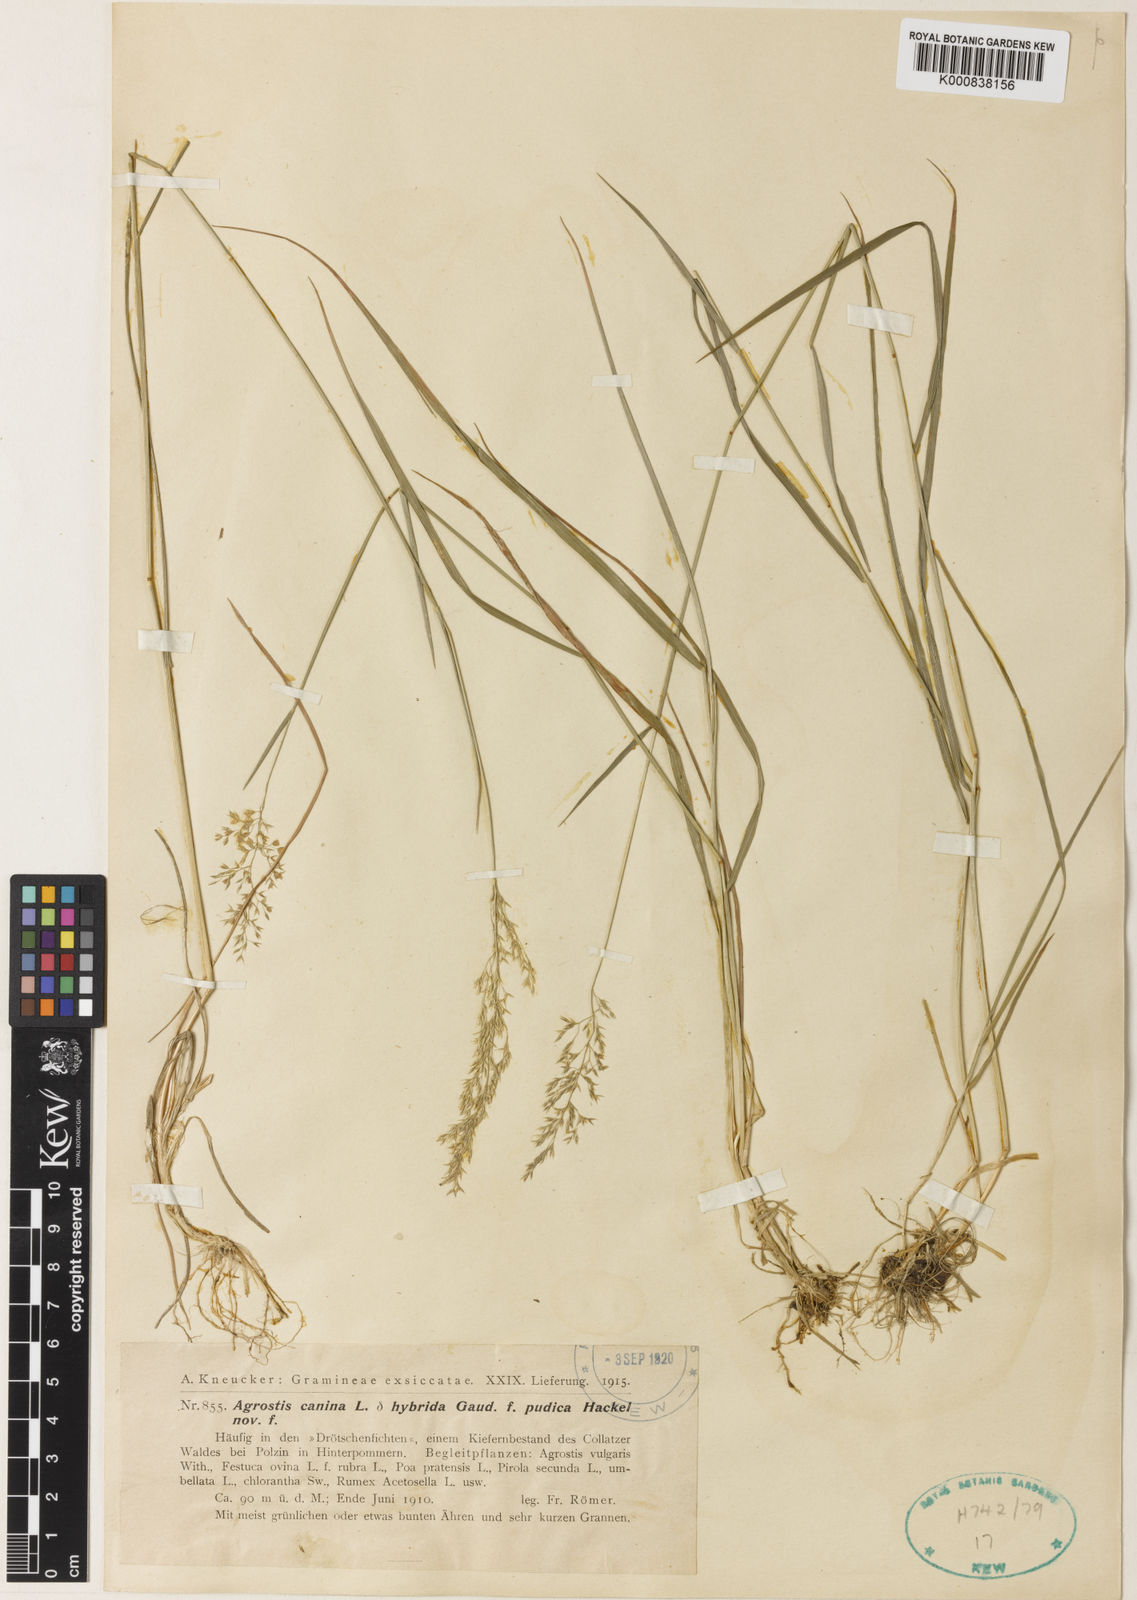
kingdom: Plantae
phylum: Tracheophyta
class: Liliopsida
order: Poales
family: Poaceae
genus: Agrostis
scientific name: Agrostis canina
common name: Velvet bent
